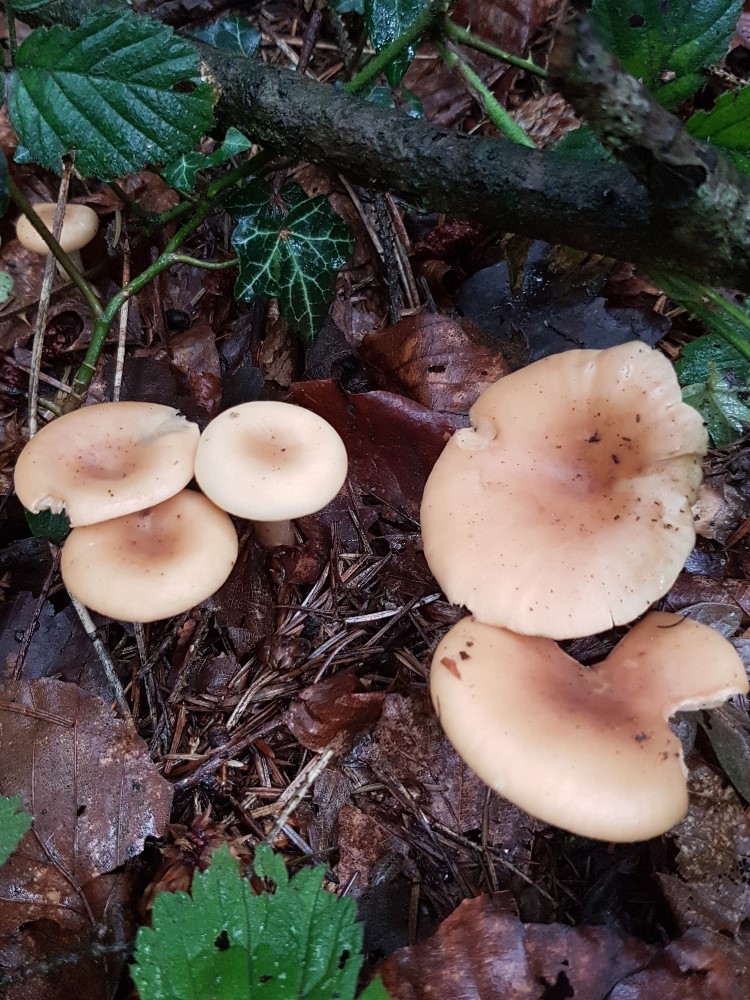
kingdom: Fungi
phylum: Basidiomycota
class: Agaricomycetes
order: Agaricales
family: Tricholomataceae
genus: Paralepista
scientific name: Paralepista flaccida
